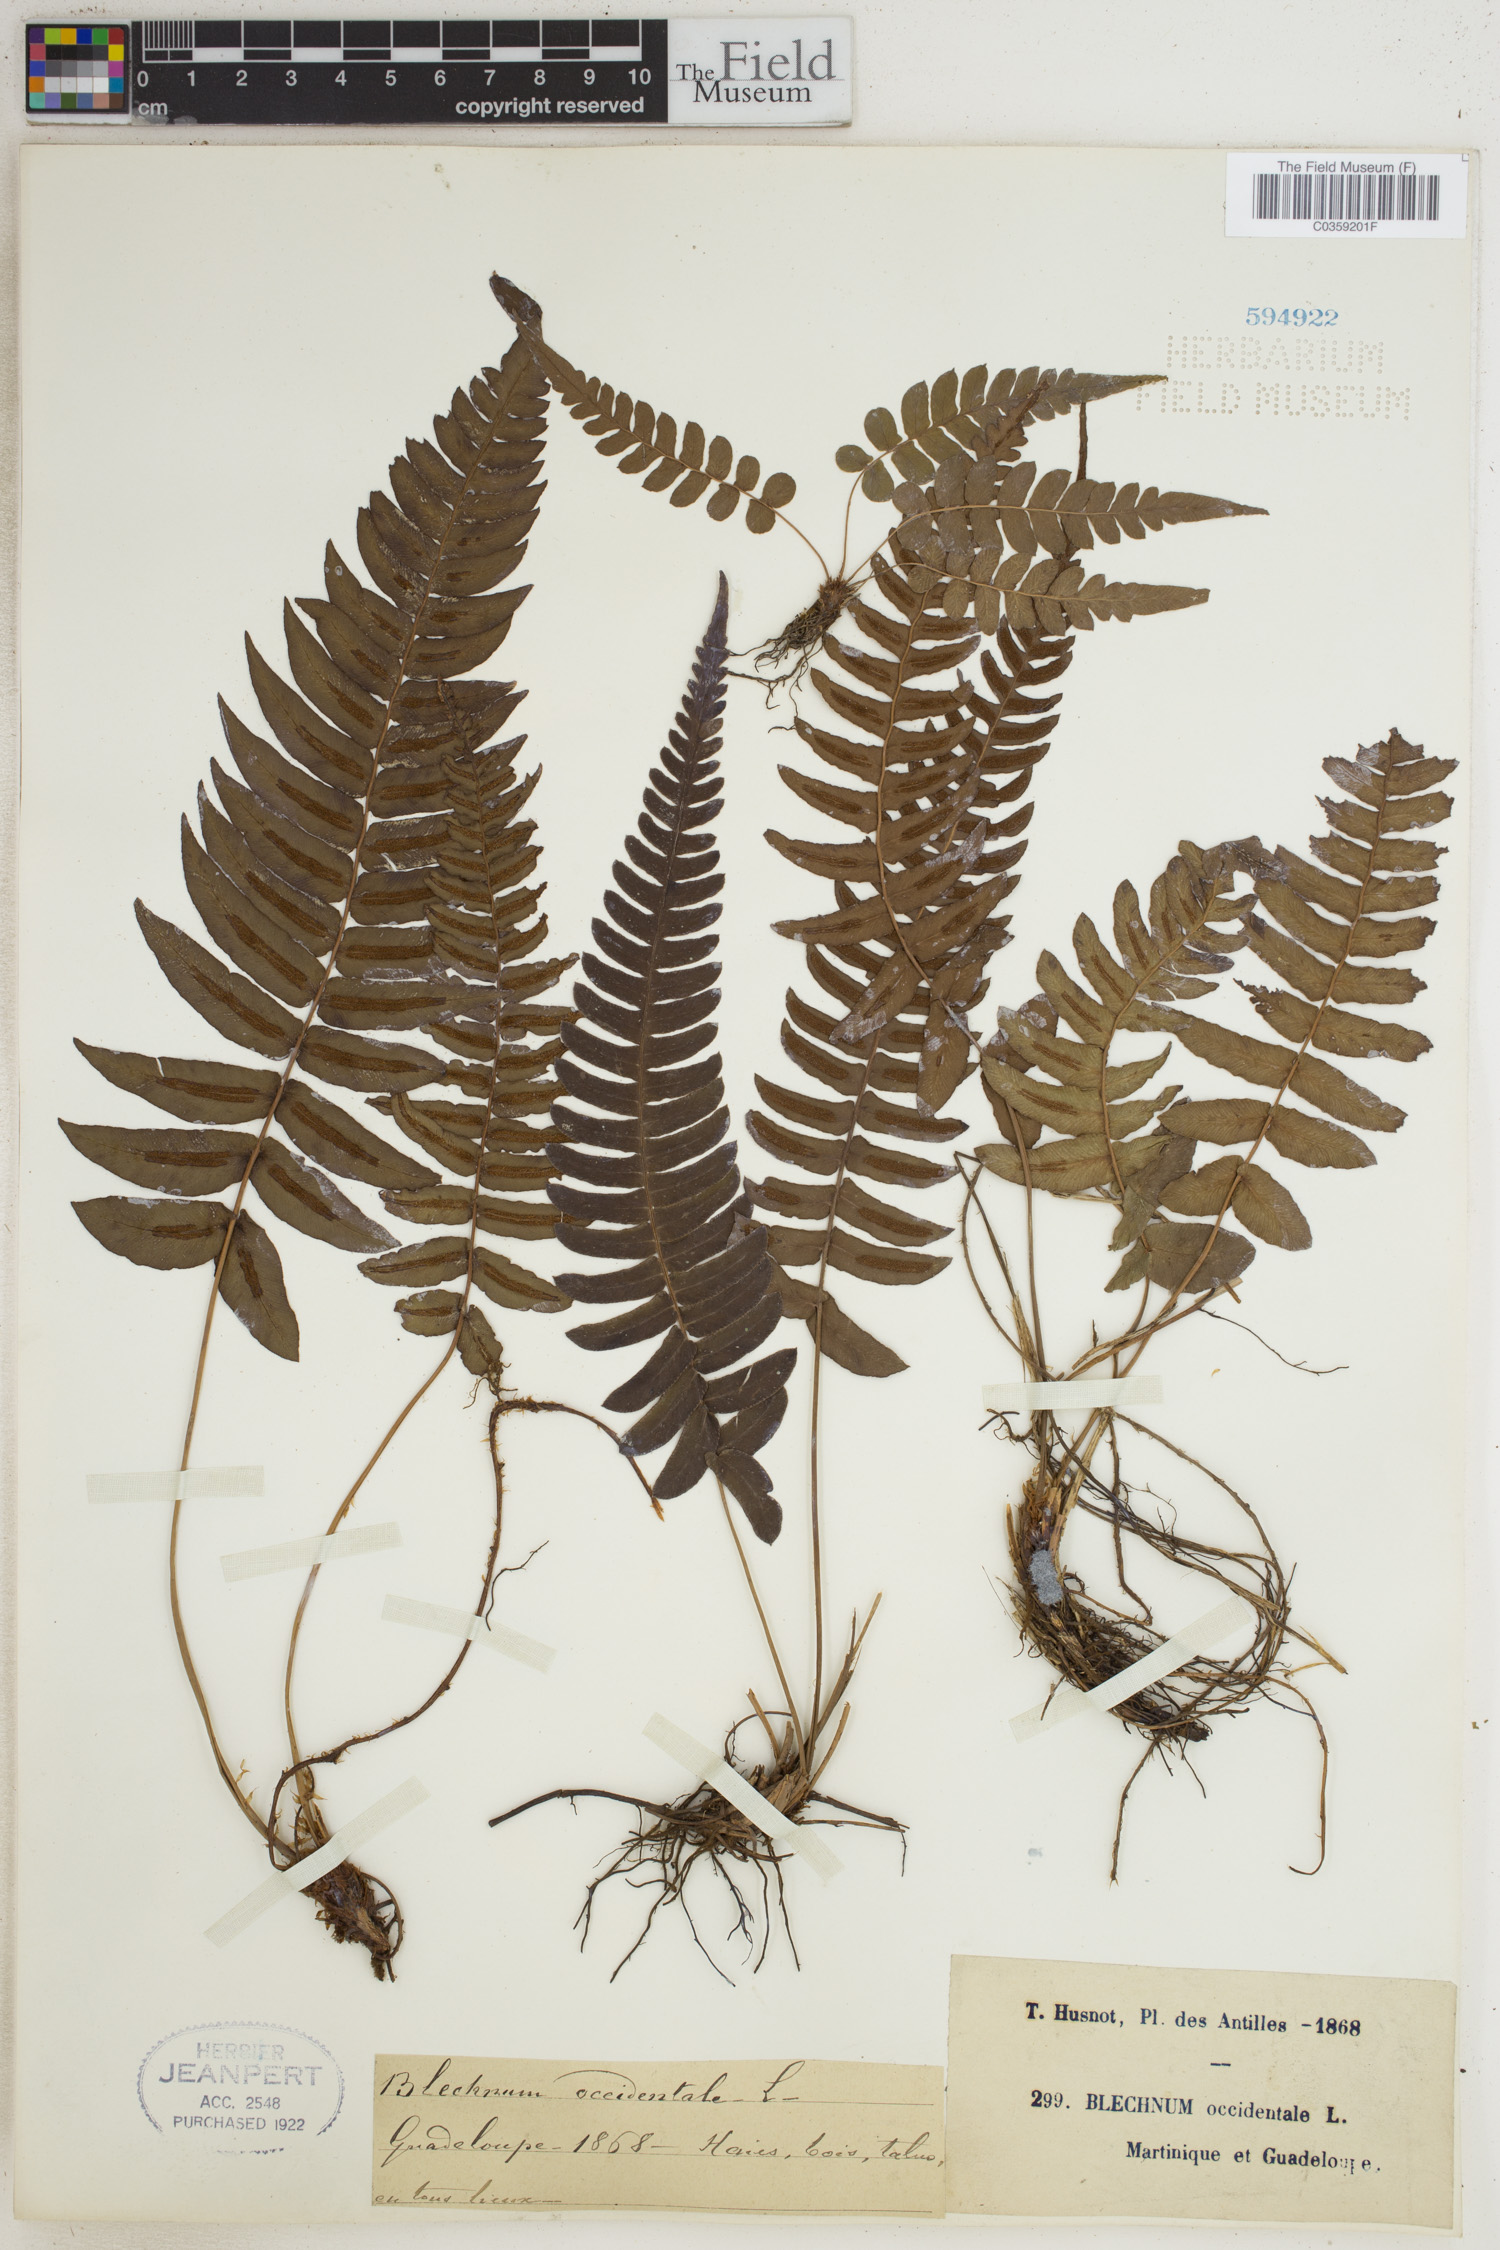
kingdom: Plantae
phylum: Tracheophyta
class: Polypodiopsida
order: Polypodiales
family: Blechnaceae
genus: Blechnum
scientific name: Blechnum occidentale
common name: Hammock fern
